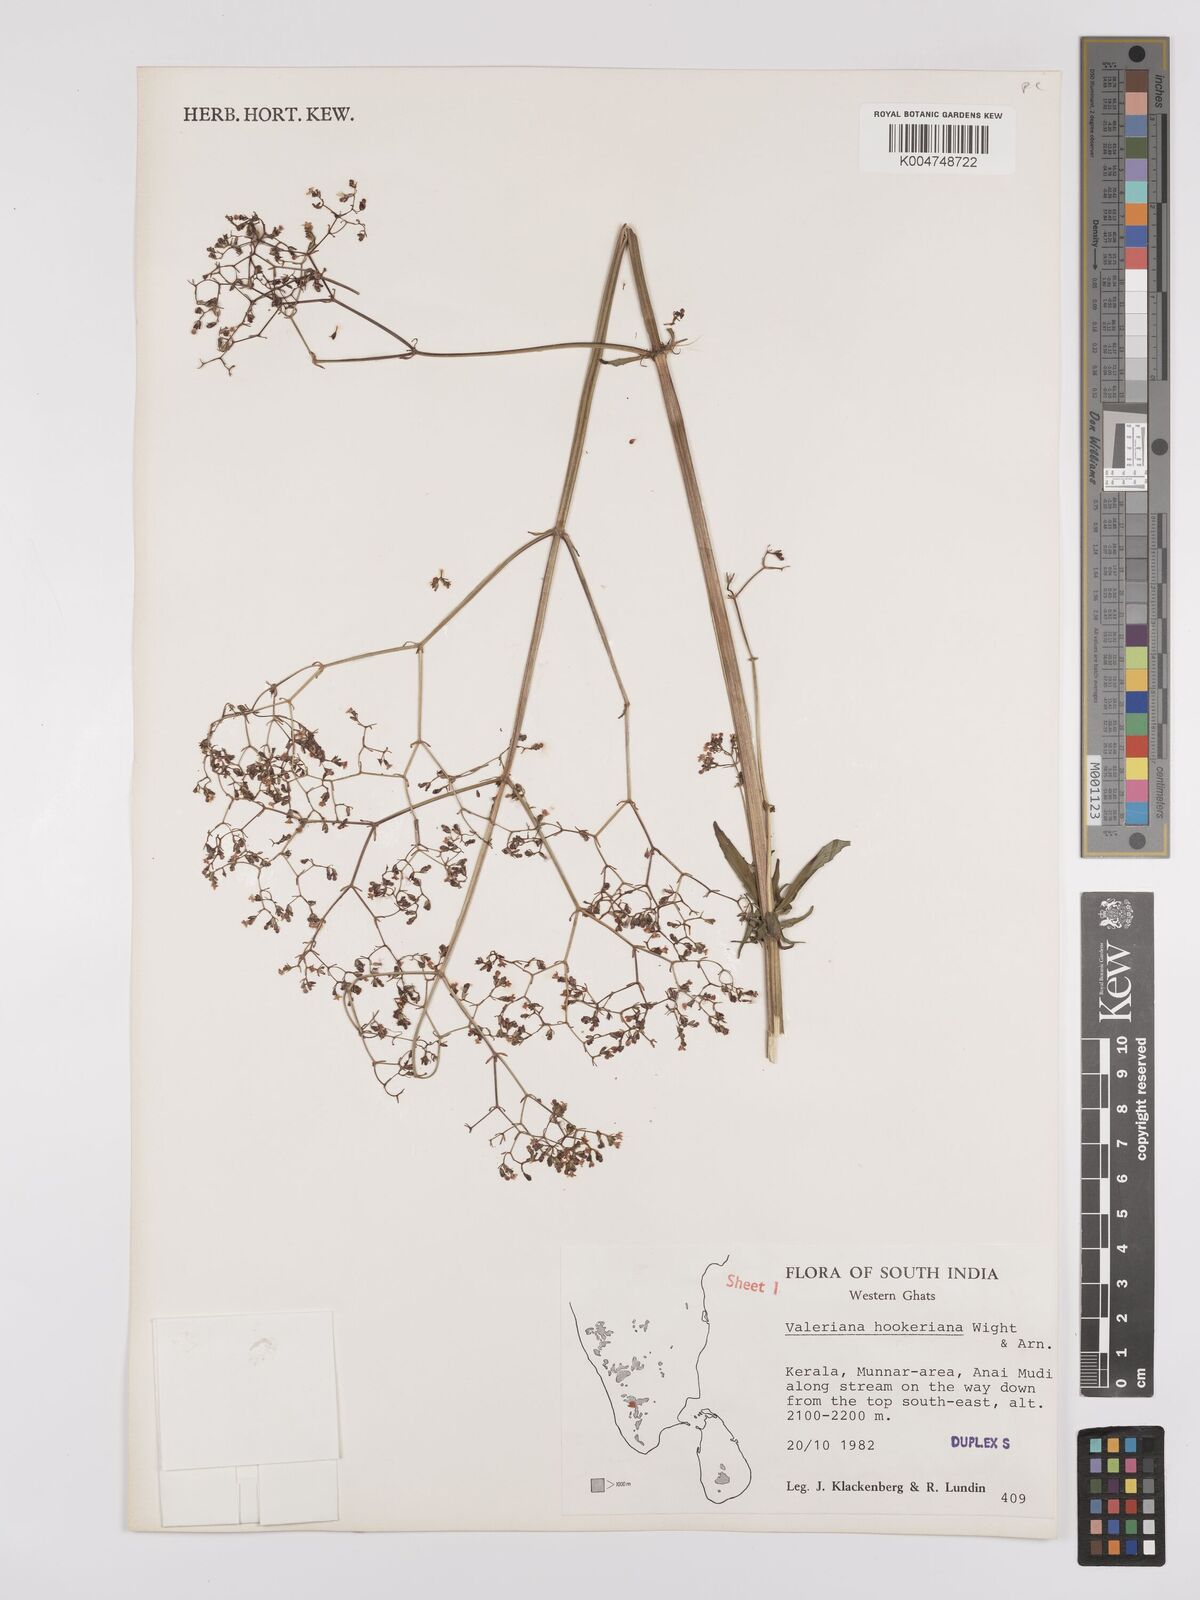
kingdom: Plantae
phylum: Tracheophyta
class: Magnoliopsida
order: Dipsacales
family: Caprifoliaceae
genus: Valeriana
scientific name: Valeriana
